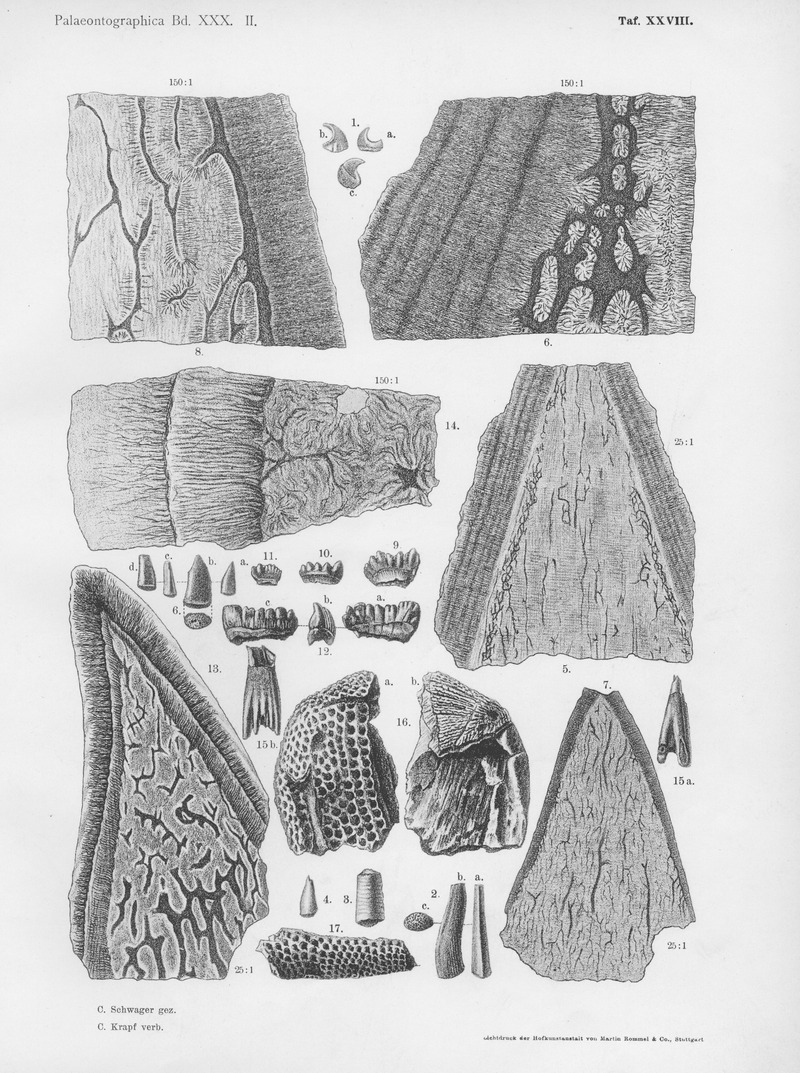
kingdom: Animalia
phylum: Chordata
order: Tetraodontiformes
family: Trigonodontidae
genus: Stephanodus
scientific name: Stephanodus
